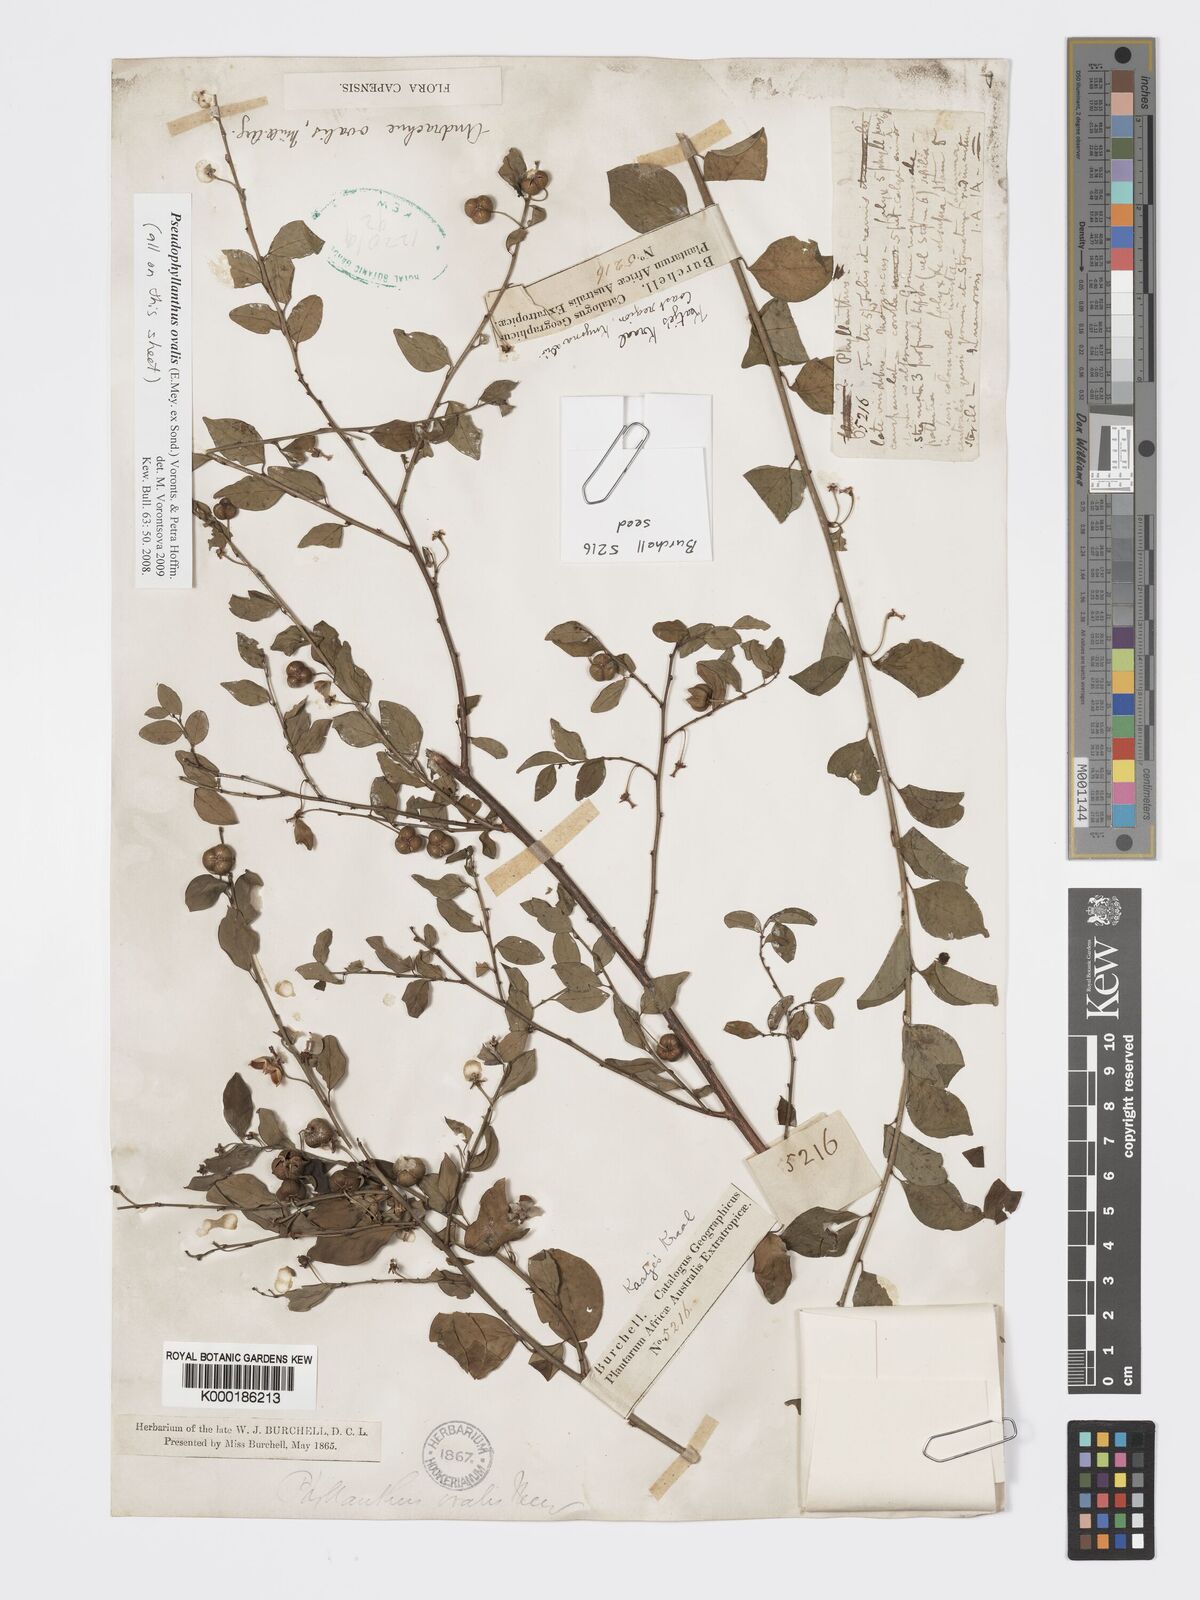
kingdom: Plantae
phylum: Tracheophyta
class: Magnoliopsida
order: Malpighiales
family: Phyllanthaceae
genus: Pseudophyllanthus
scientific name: Pseudophyllanthus ovalis
